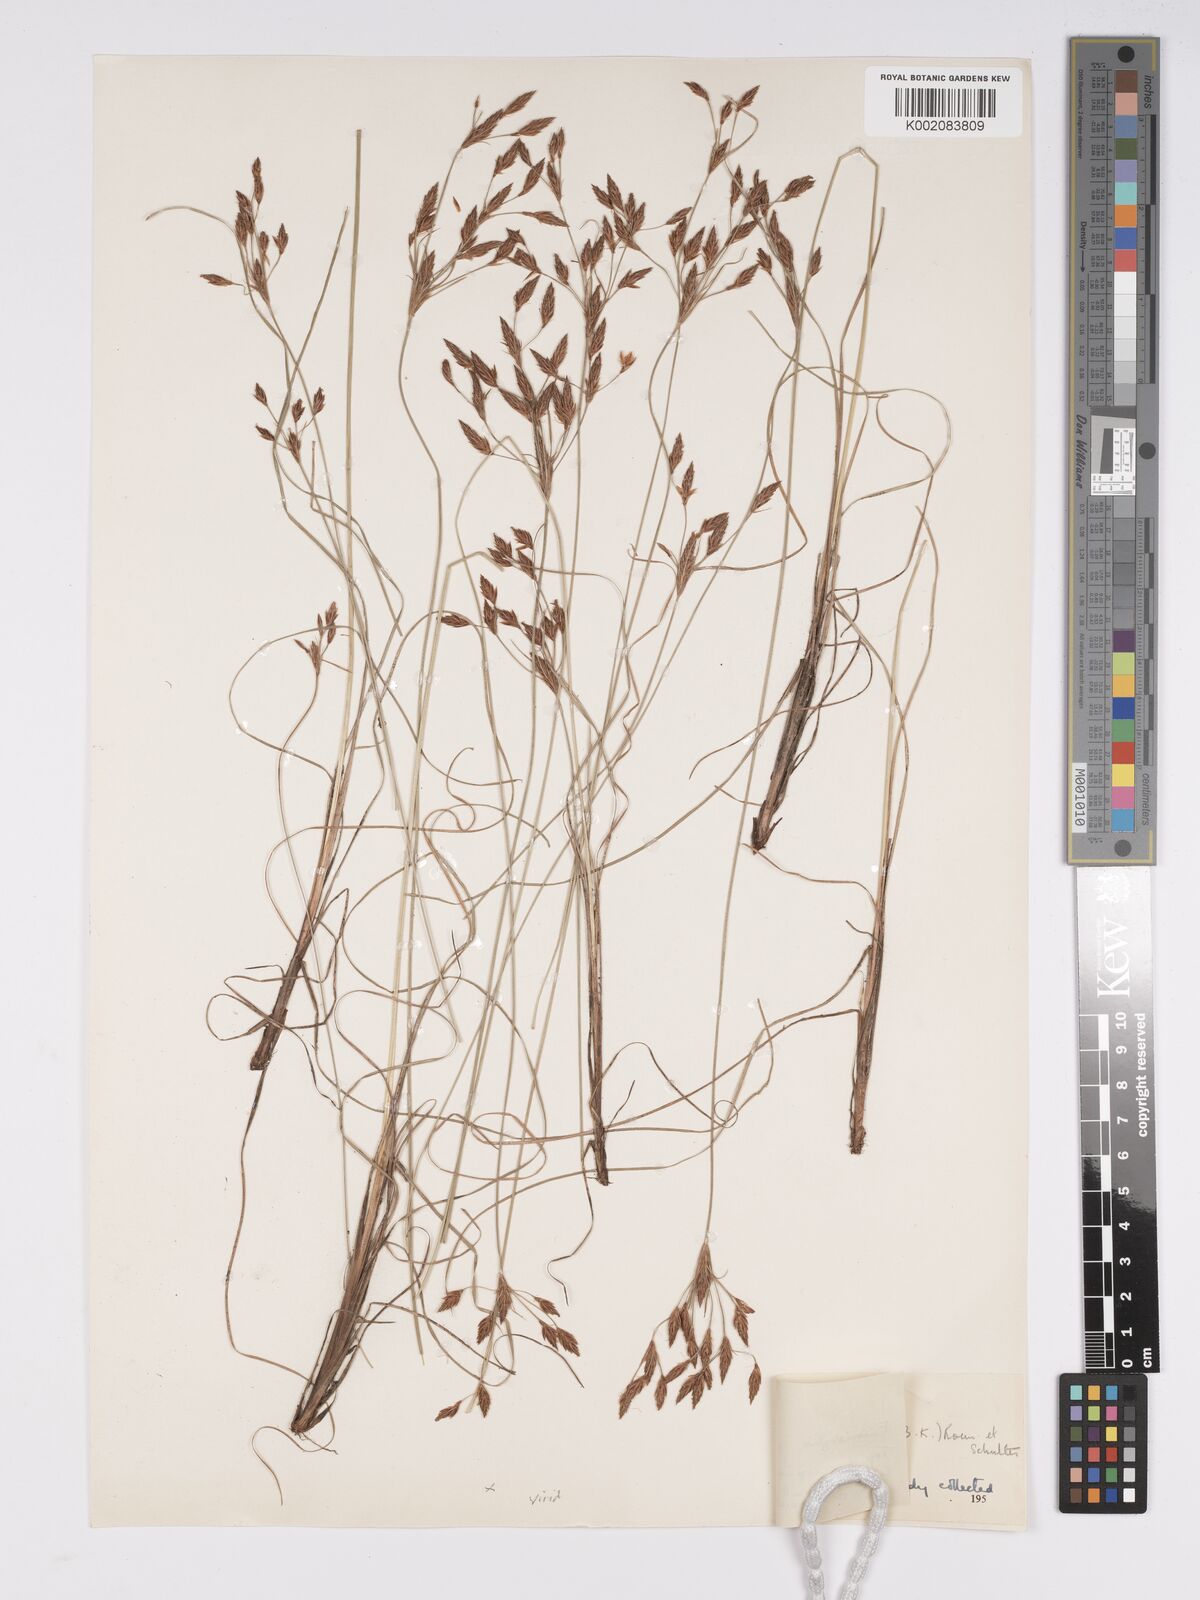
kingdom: Plantae
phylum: Tracheophyta
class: Liliopsida
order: Poales
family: Cyperaceae
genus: Bulbostylis
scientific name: Bulbostylis hispidula
